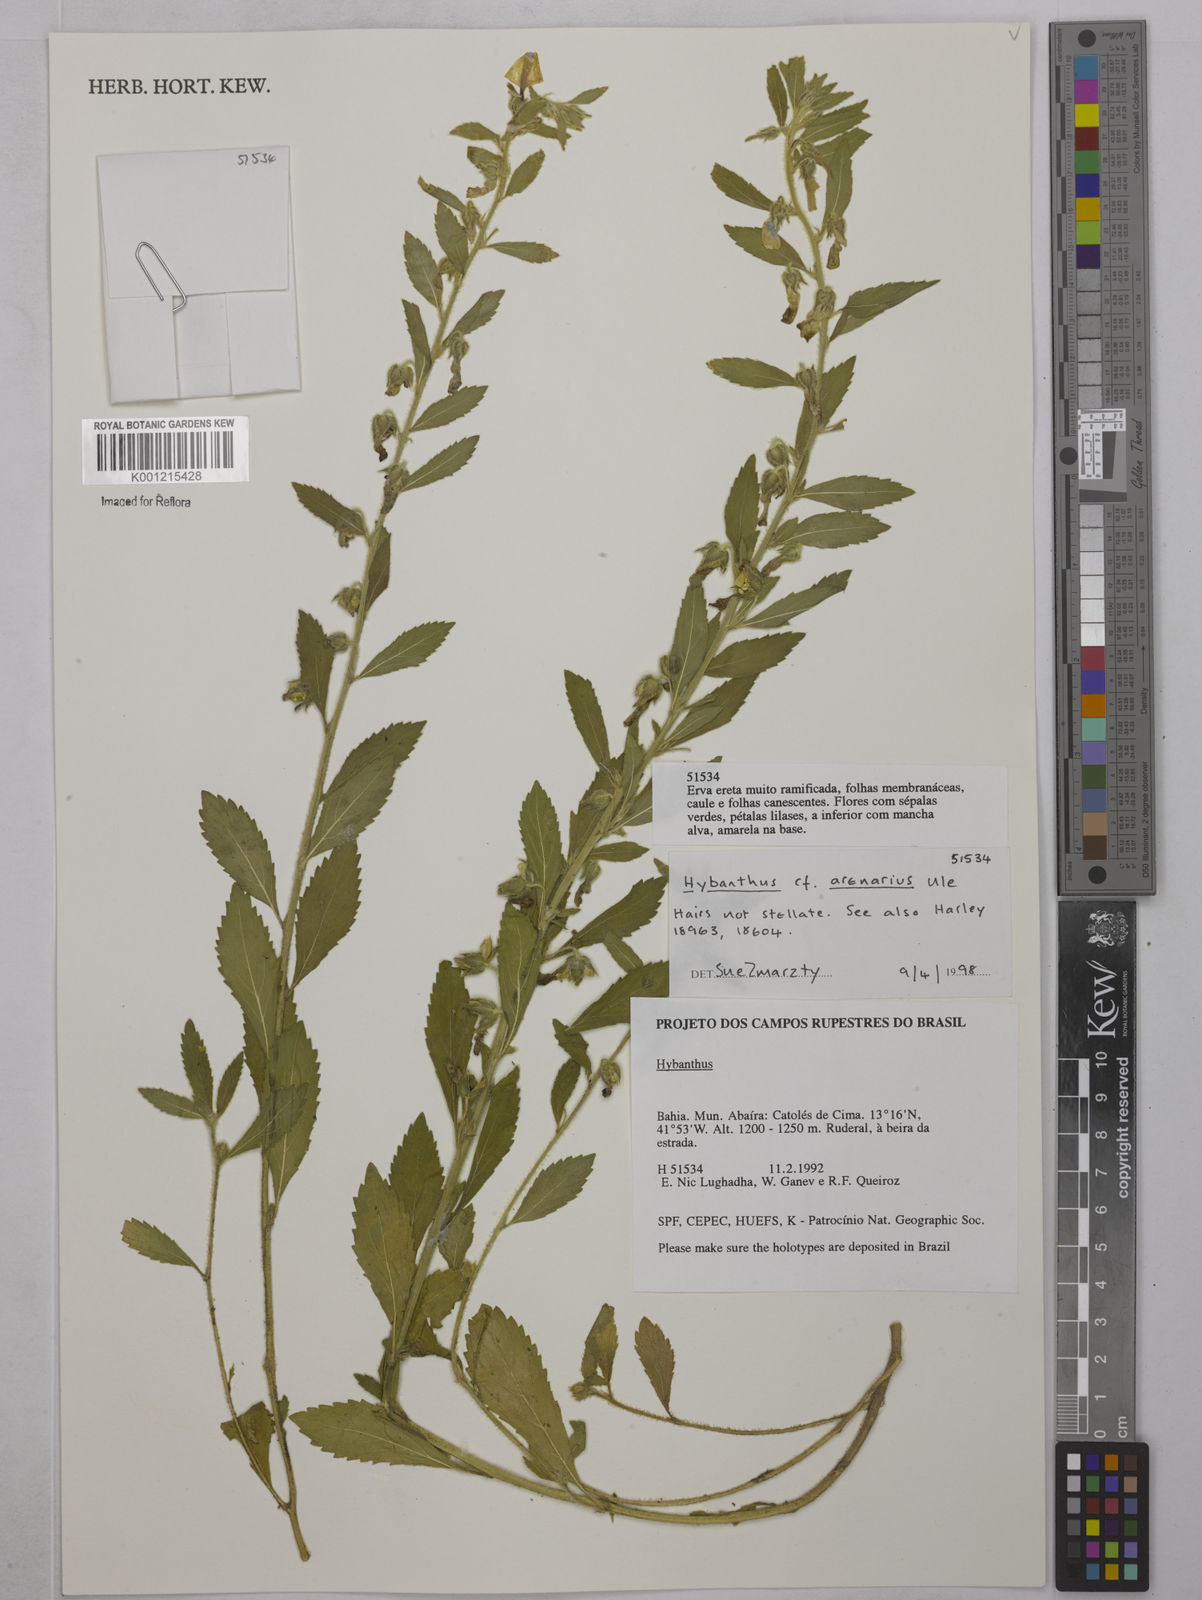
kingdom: Plantae
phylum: Tracheophyta
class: Magnoliopsida
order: Malpighiales
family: Violaceae
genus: Pombalia
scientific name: Pombalia arenaria
